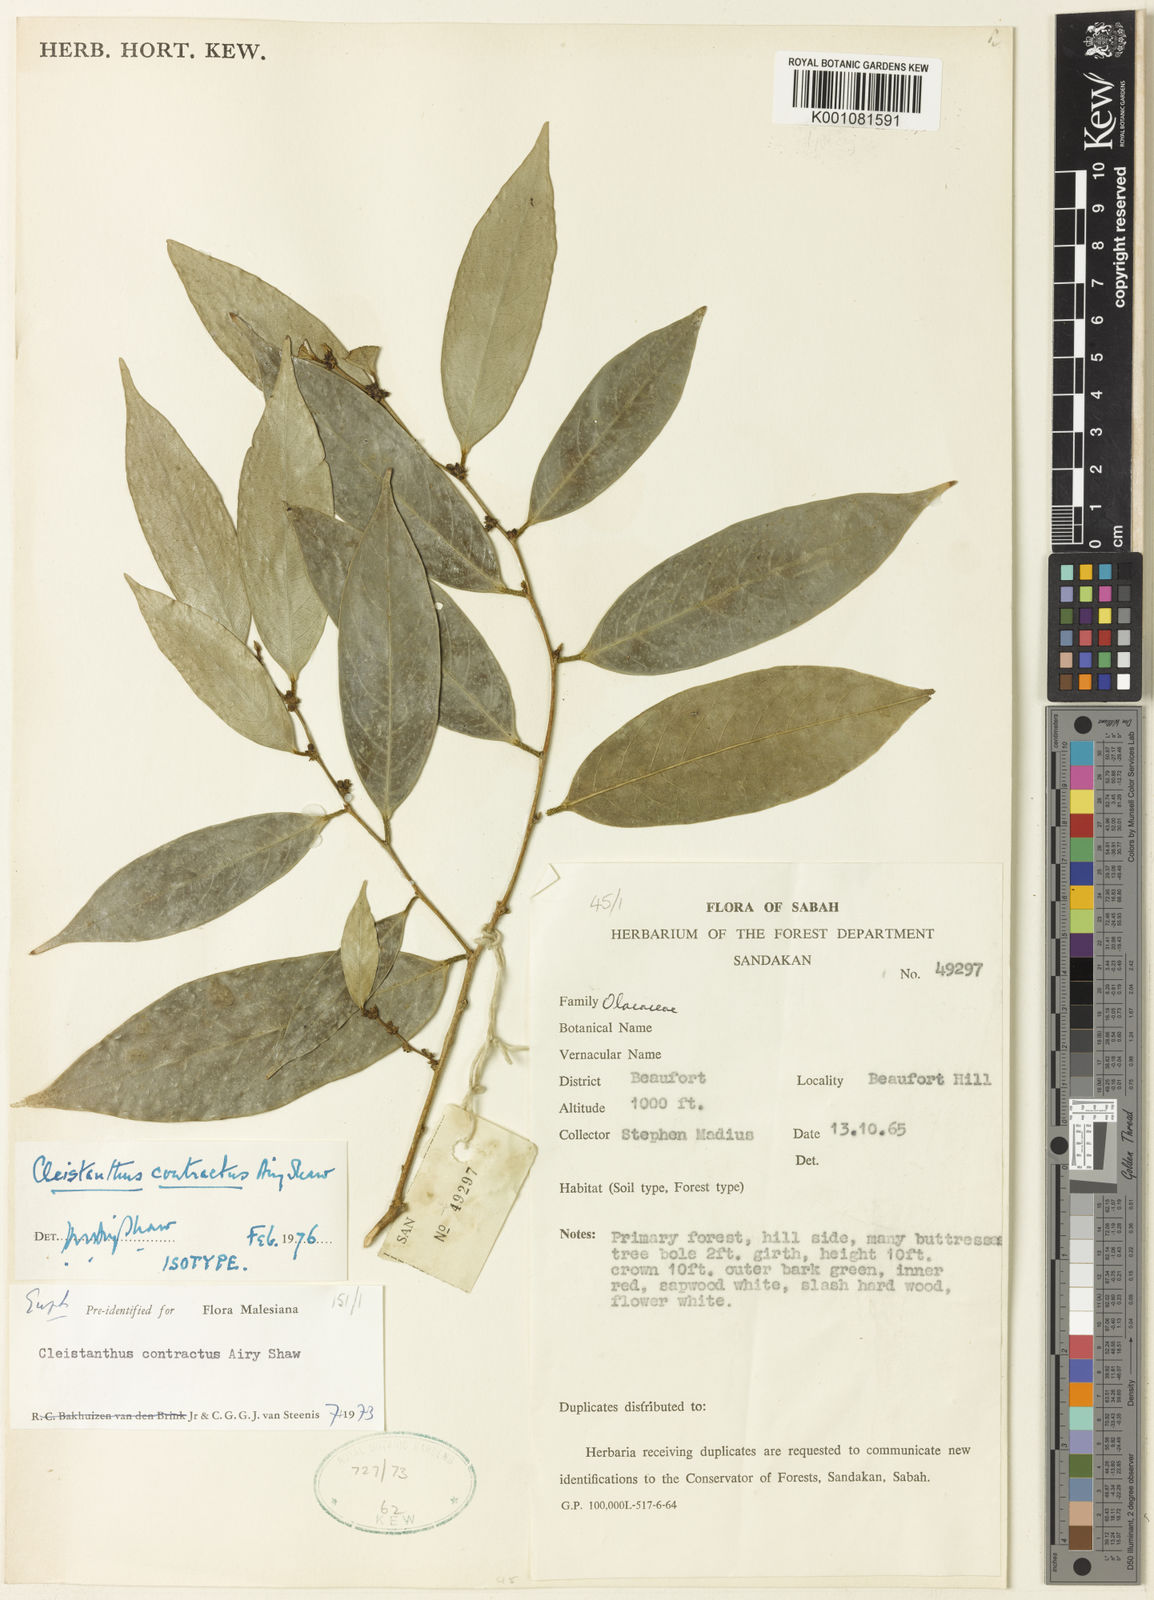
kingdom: Plantae
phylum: Tracheophyta
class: Magnoliopsida
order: Malpighiales
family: Phyllanthaceae
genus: Cleistanthus
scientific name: Cleistanthus contractus
